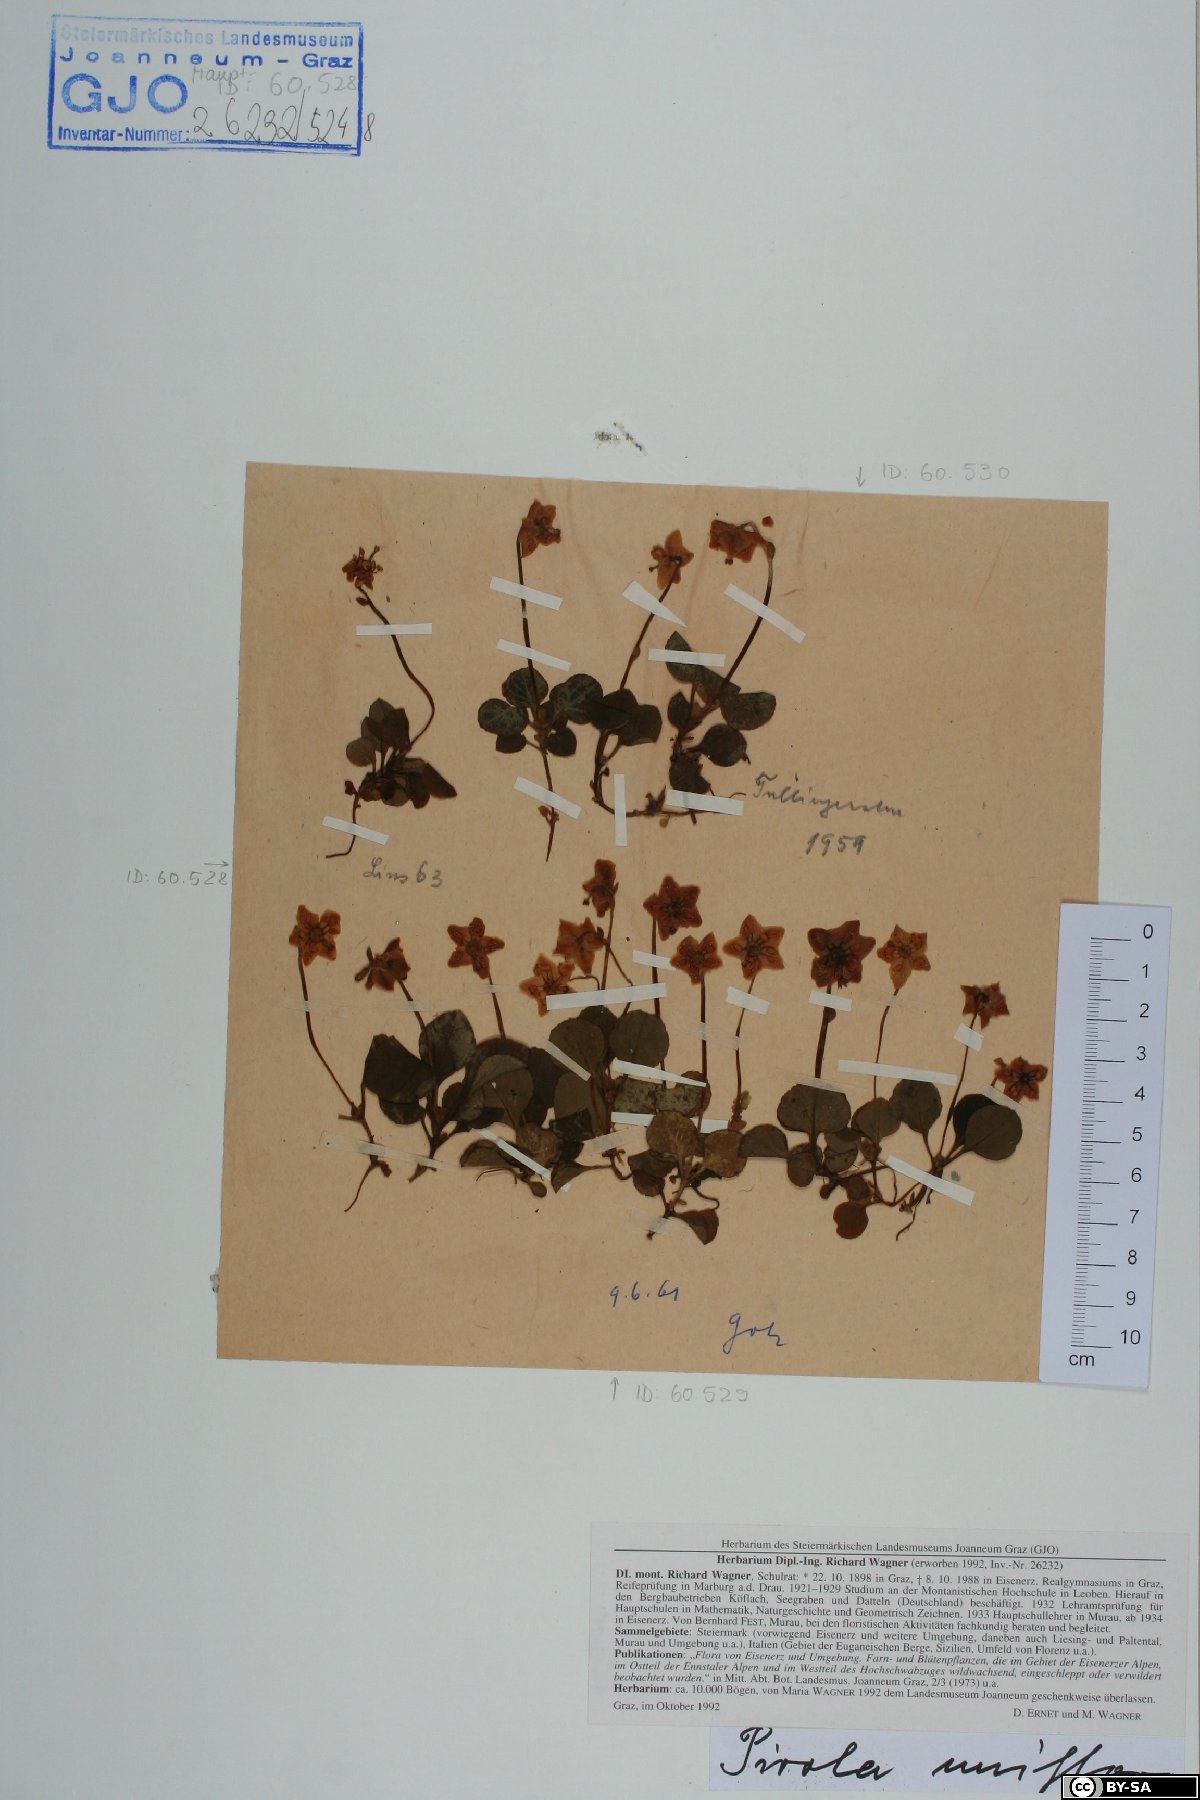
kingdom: Plantae
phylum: Tracheophyta
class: Magnoliopsida
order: Ericales
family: Ericaceae
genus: Moneses
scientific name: Moneses uniflora
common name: One-flowered wintergreen
